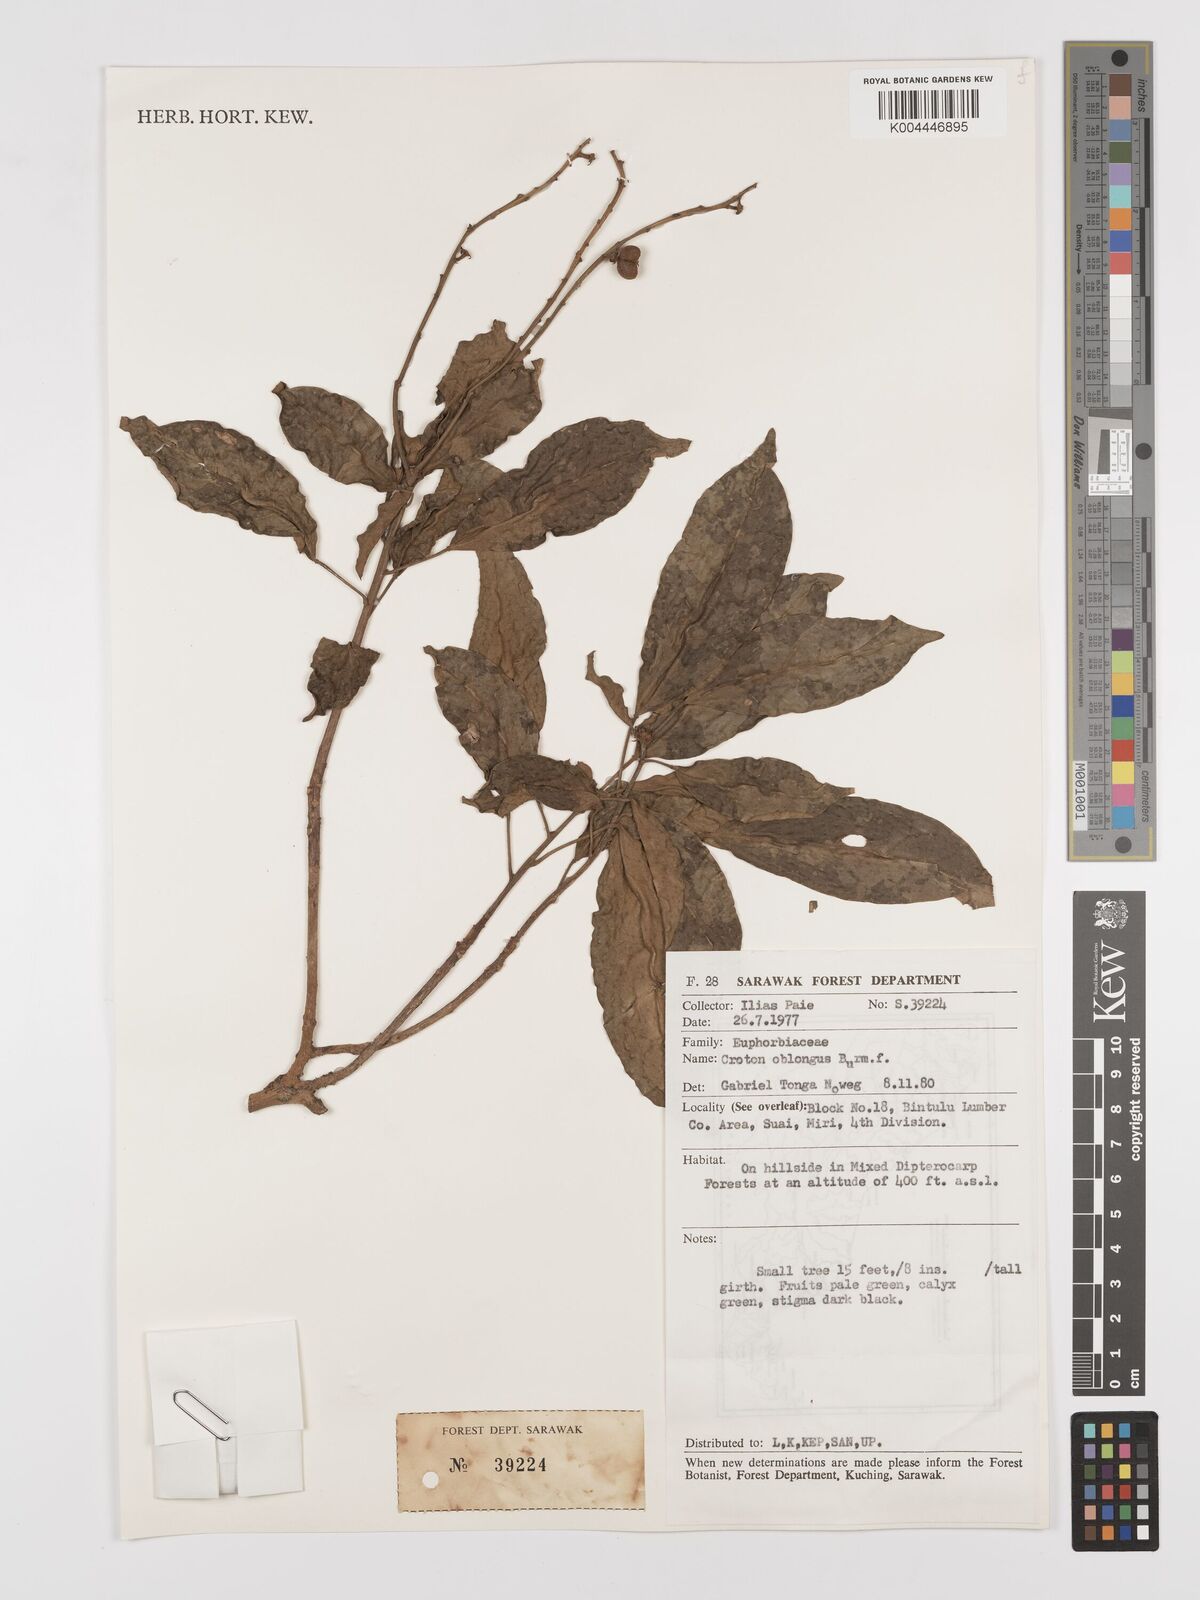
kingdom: Plantae
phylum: Tracheophyta
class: Magnoliopsida
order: Malpighiales
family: Euphorbiaceae
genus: Croton
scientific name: Croton oblongus
